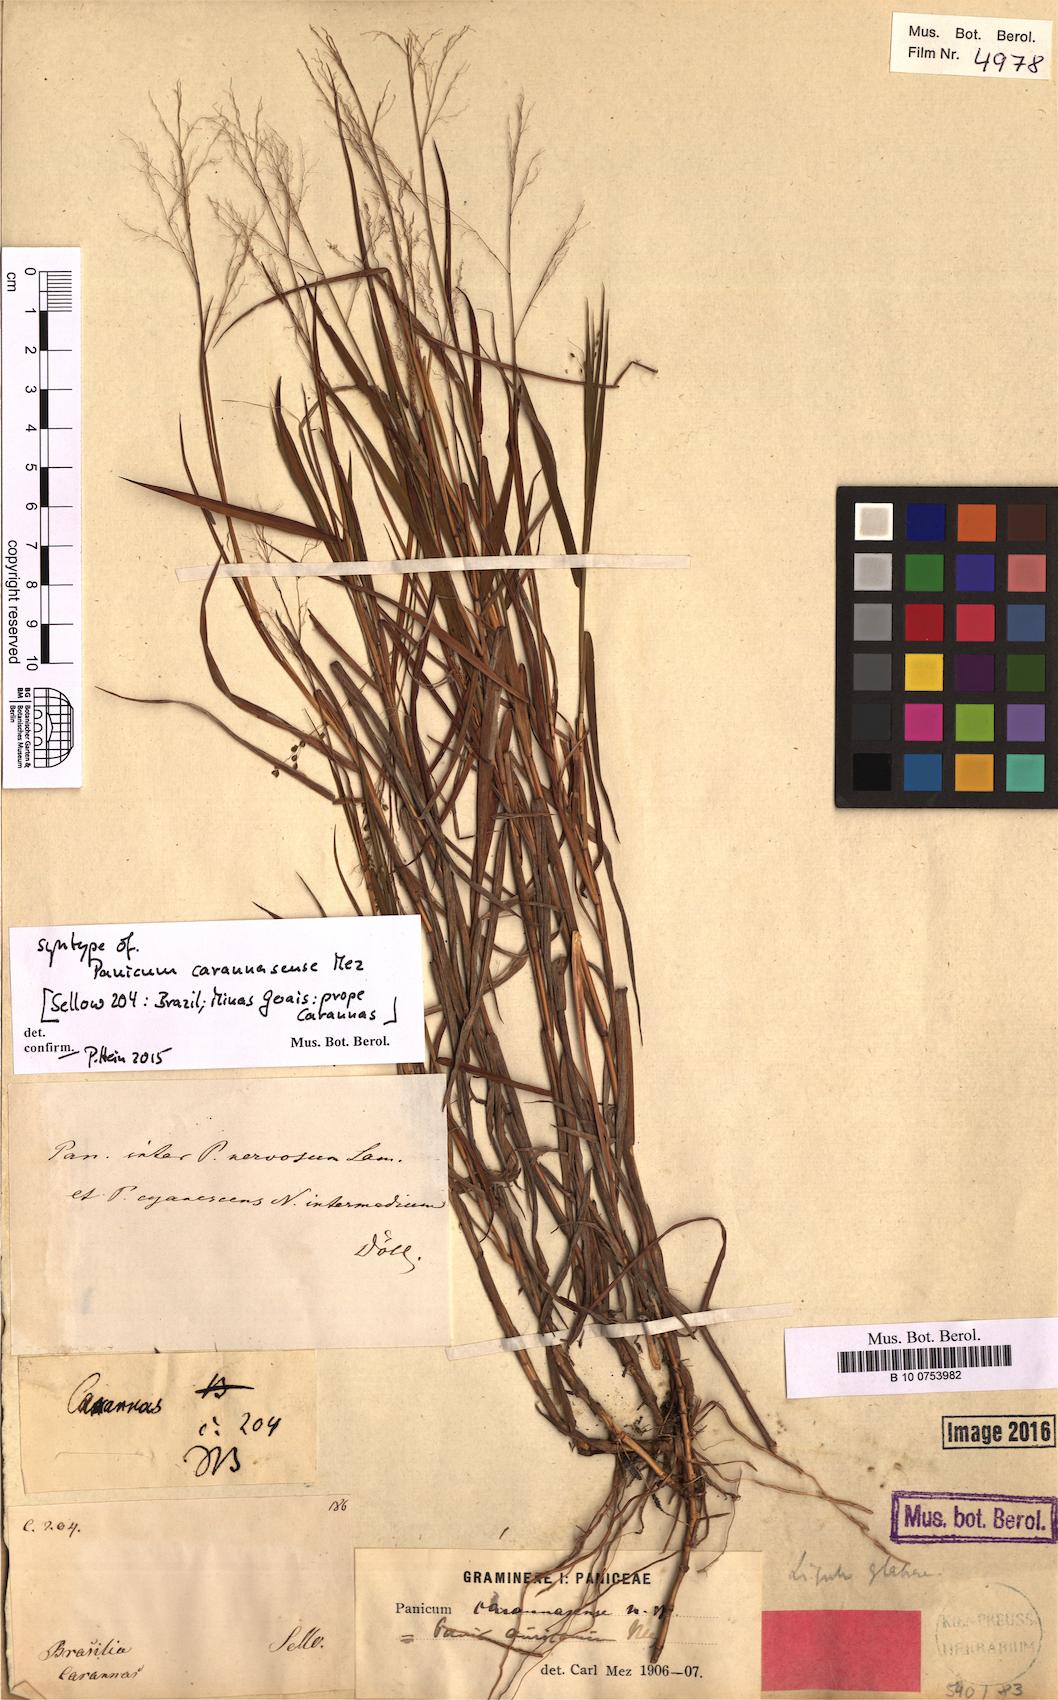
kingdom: Plantae
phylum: Tracheophyta
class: Liliopsida
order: Poales
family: Poaceae
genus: Trichanthecium
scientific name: Trichanthecium cyanescens
